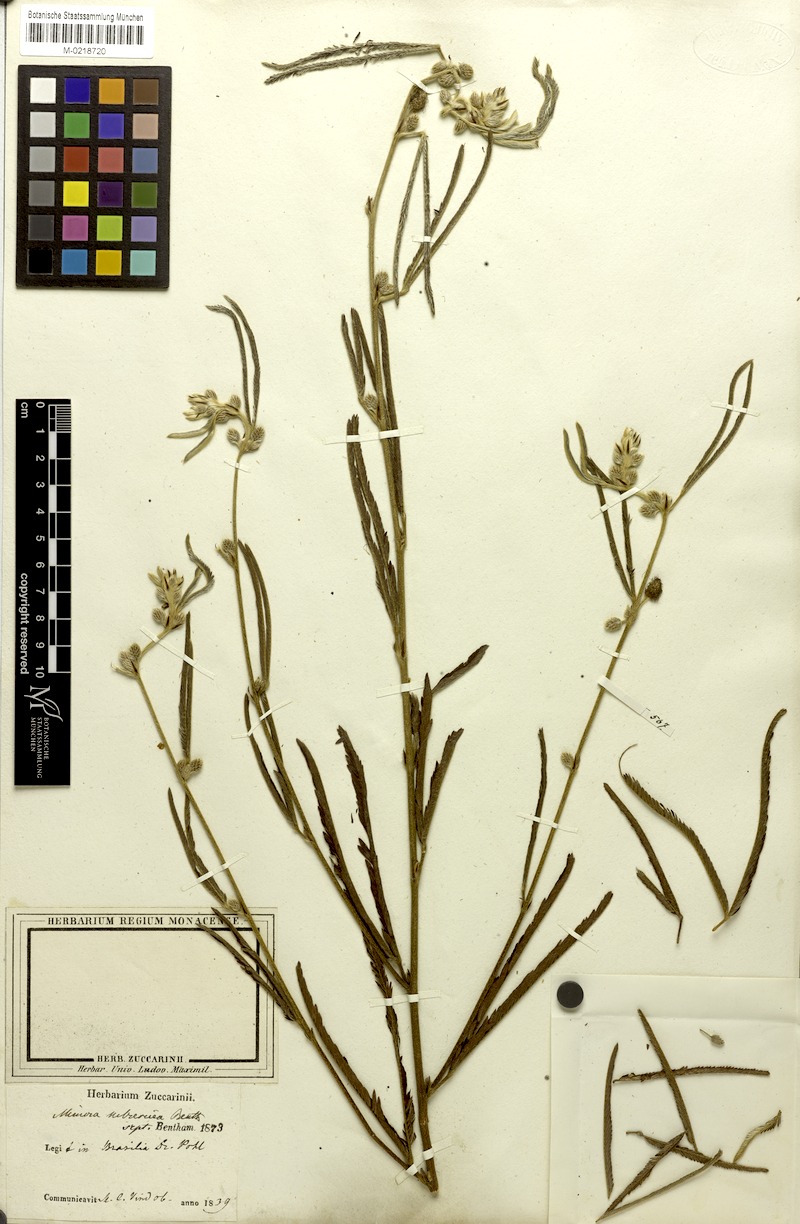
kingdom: Plantae
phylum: Tracheophyta
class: Magnoliopsida
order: Fabales
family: Fabaceae
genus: Mimosa
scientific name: Mimosa xanthocentra
